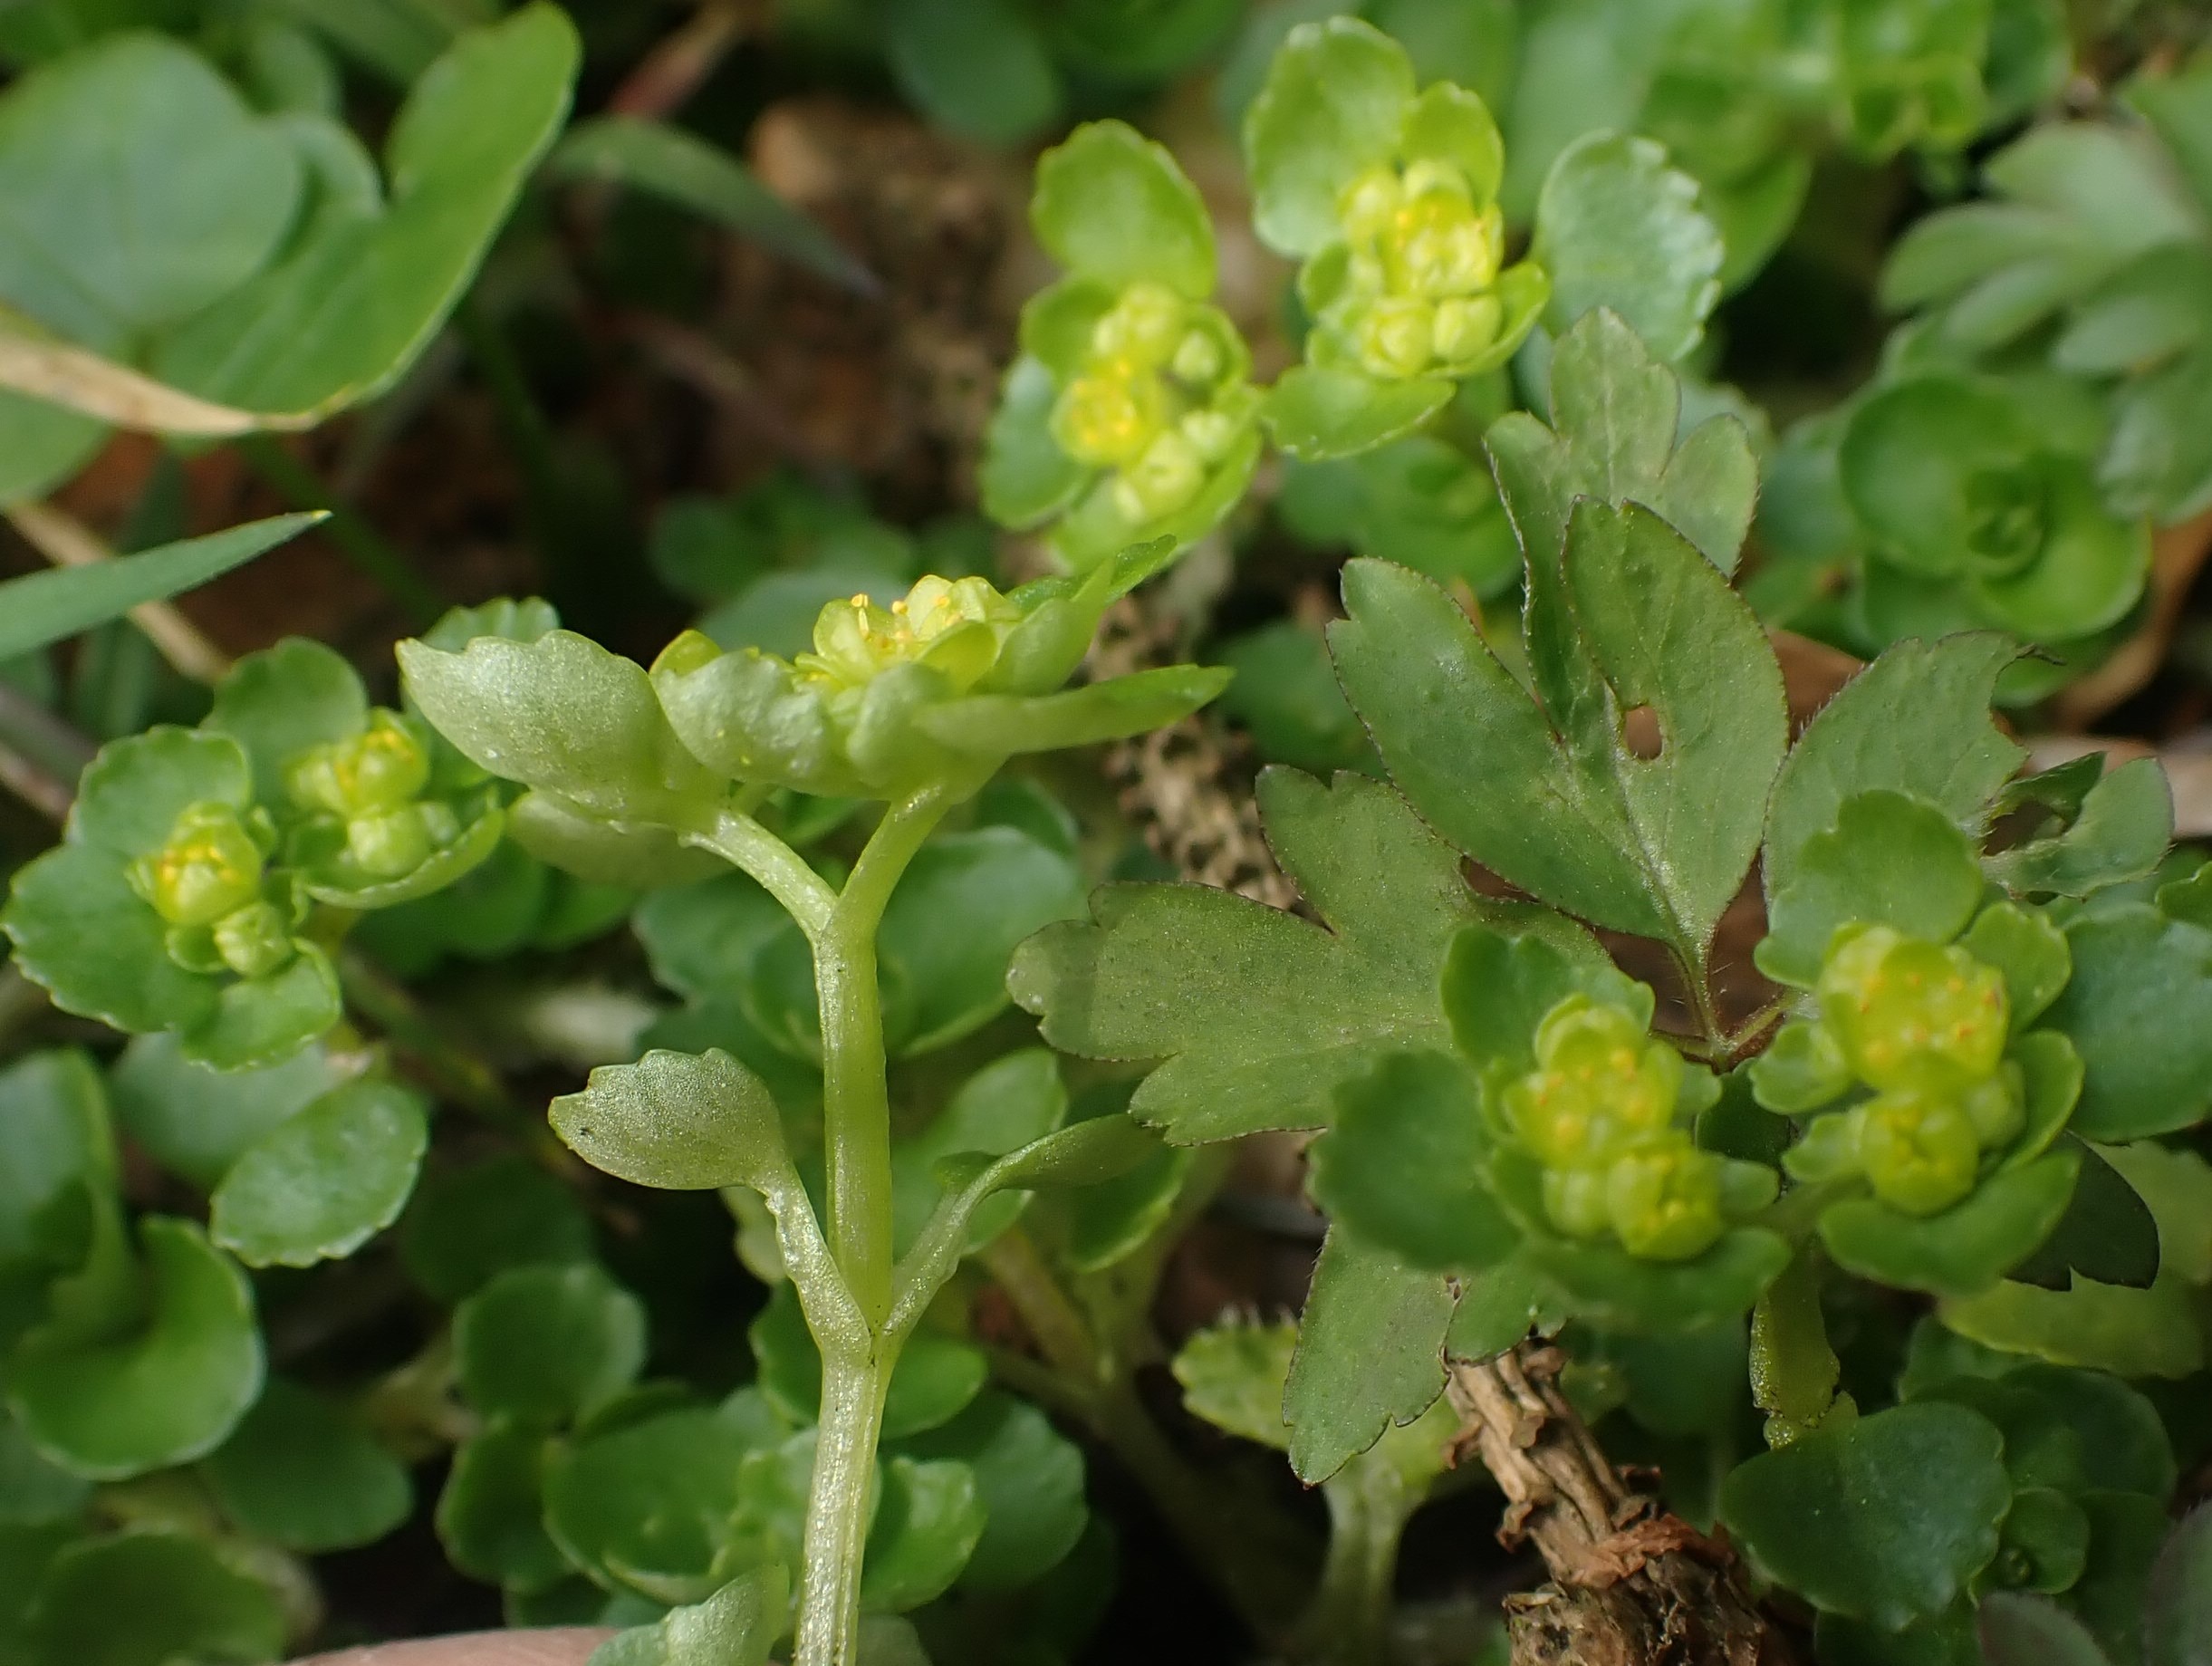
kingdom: Plantae
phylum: Tracheophyta
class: Magnoliopsida
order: Saxifragales
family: Saxifragaceae
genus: Chrysosplenium
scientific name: Chrysosplenium oppositifolium
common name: Småbladet milturt
